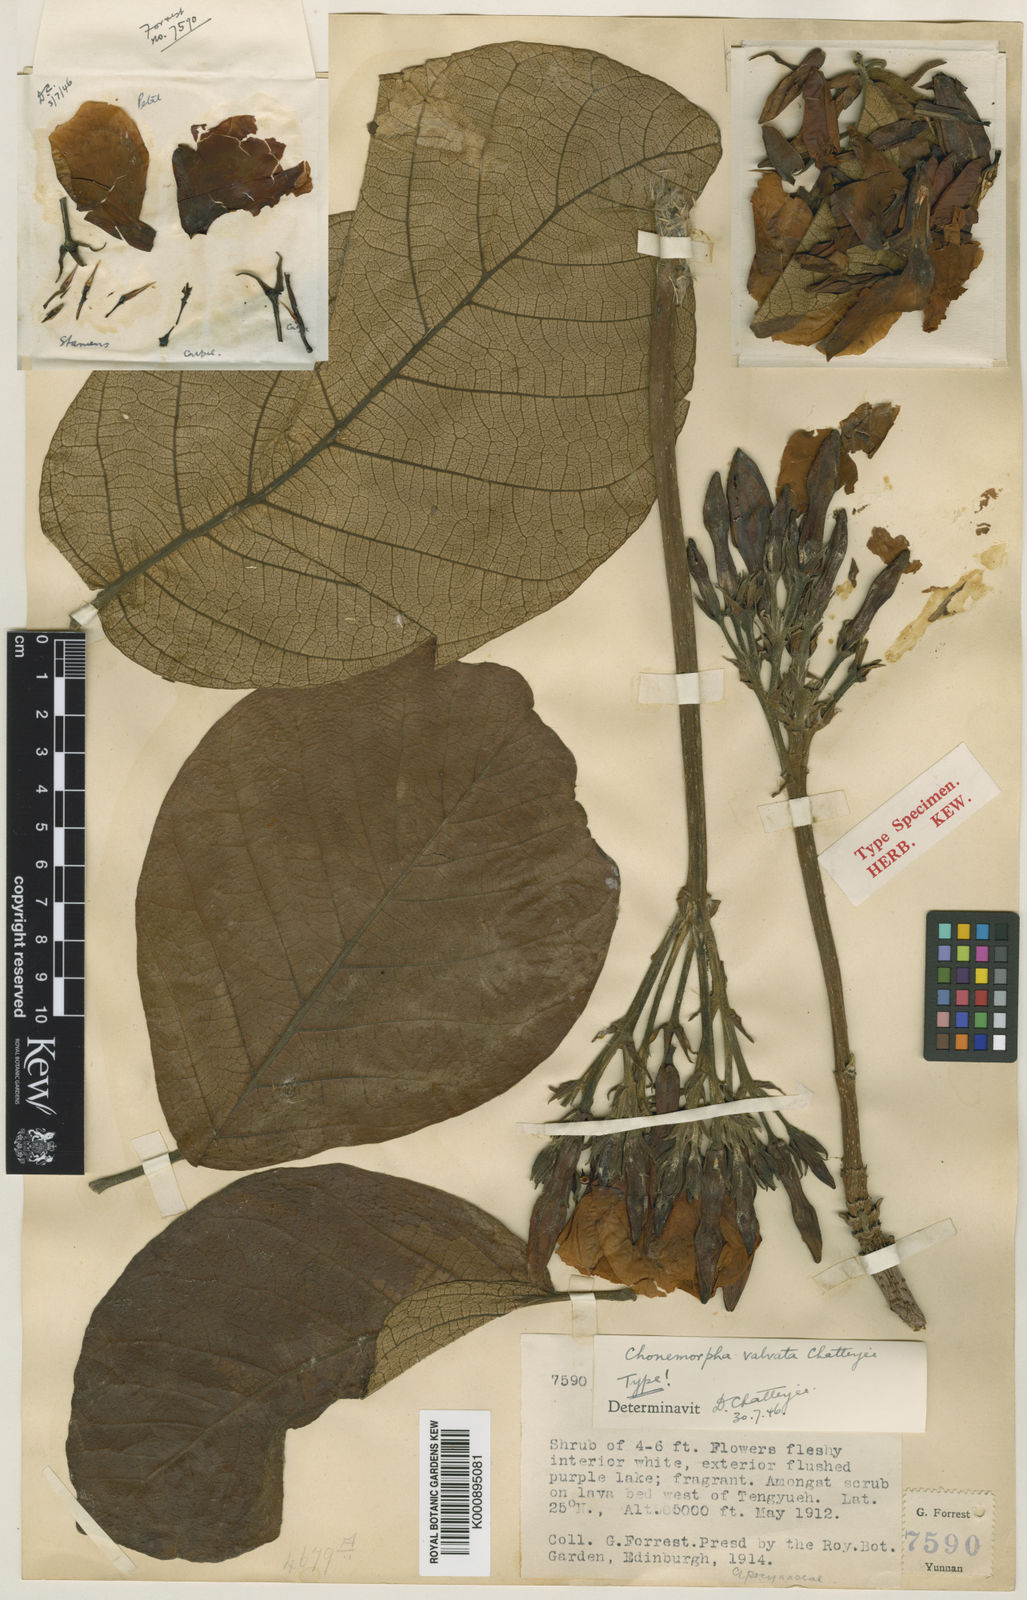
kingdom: Plantae
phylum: Tracheophyta
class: Magnoliopsida
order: Gentianales
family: Apocynaceae
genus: Chonemorpha
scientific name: Chonemorpha griffithii
